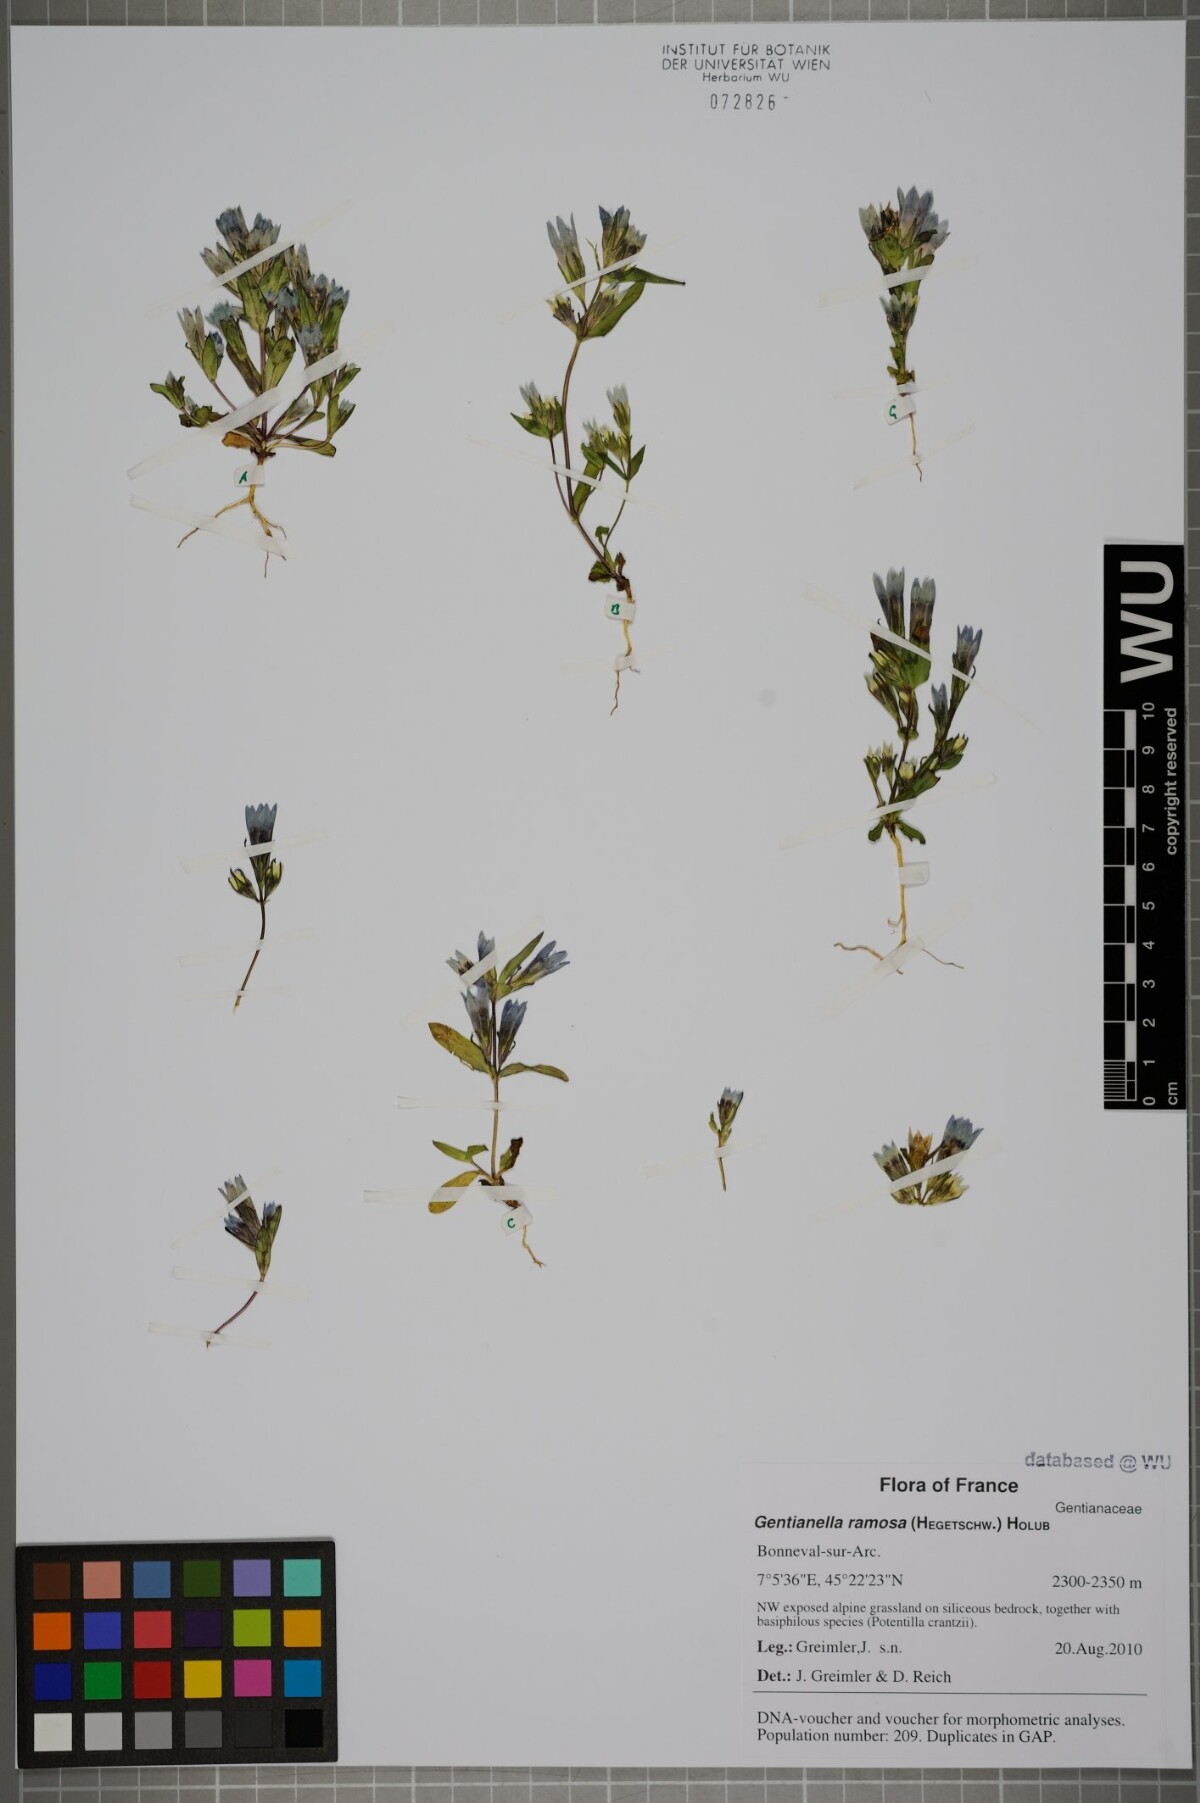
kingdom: Plantae
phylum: Tracheophyta
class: Magnoliopsida
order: Gentianales
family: Gentianaceae
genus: Gentianella
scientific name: Gentianella ramosa
